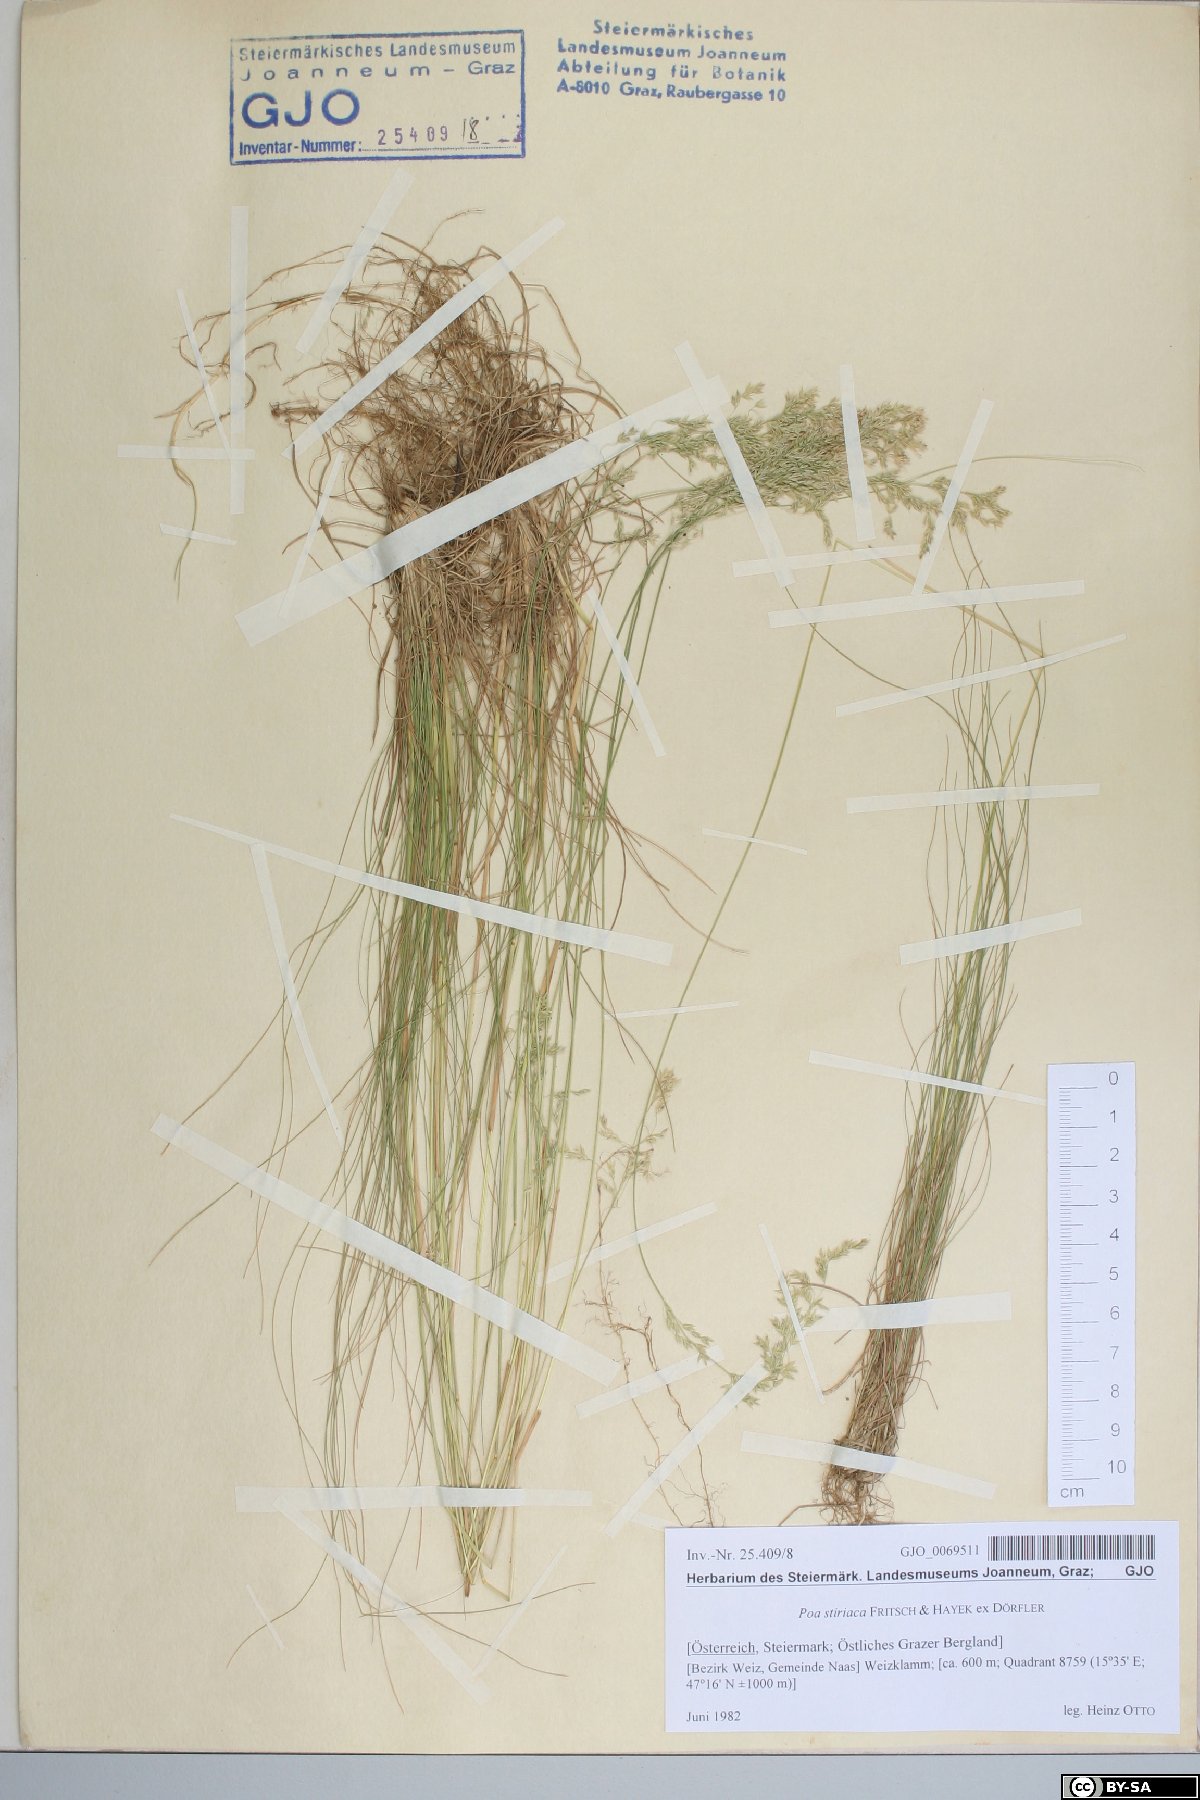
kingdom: Plantae
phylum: Tracheophyta
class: Liliopsida
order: Poales
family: Poaceae
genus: Poa
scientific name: Poa stiriaca
